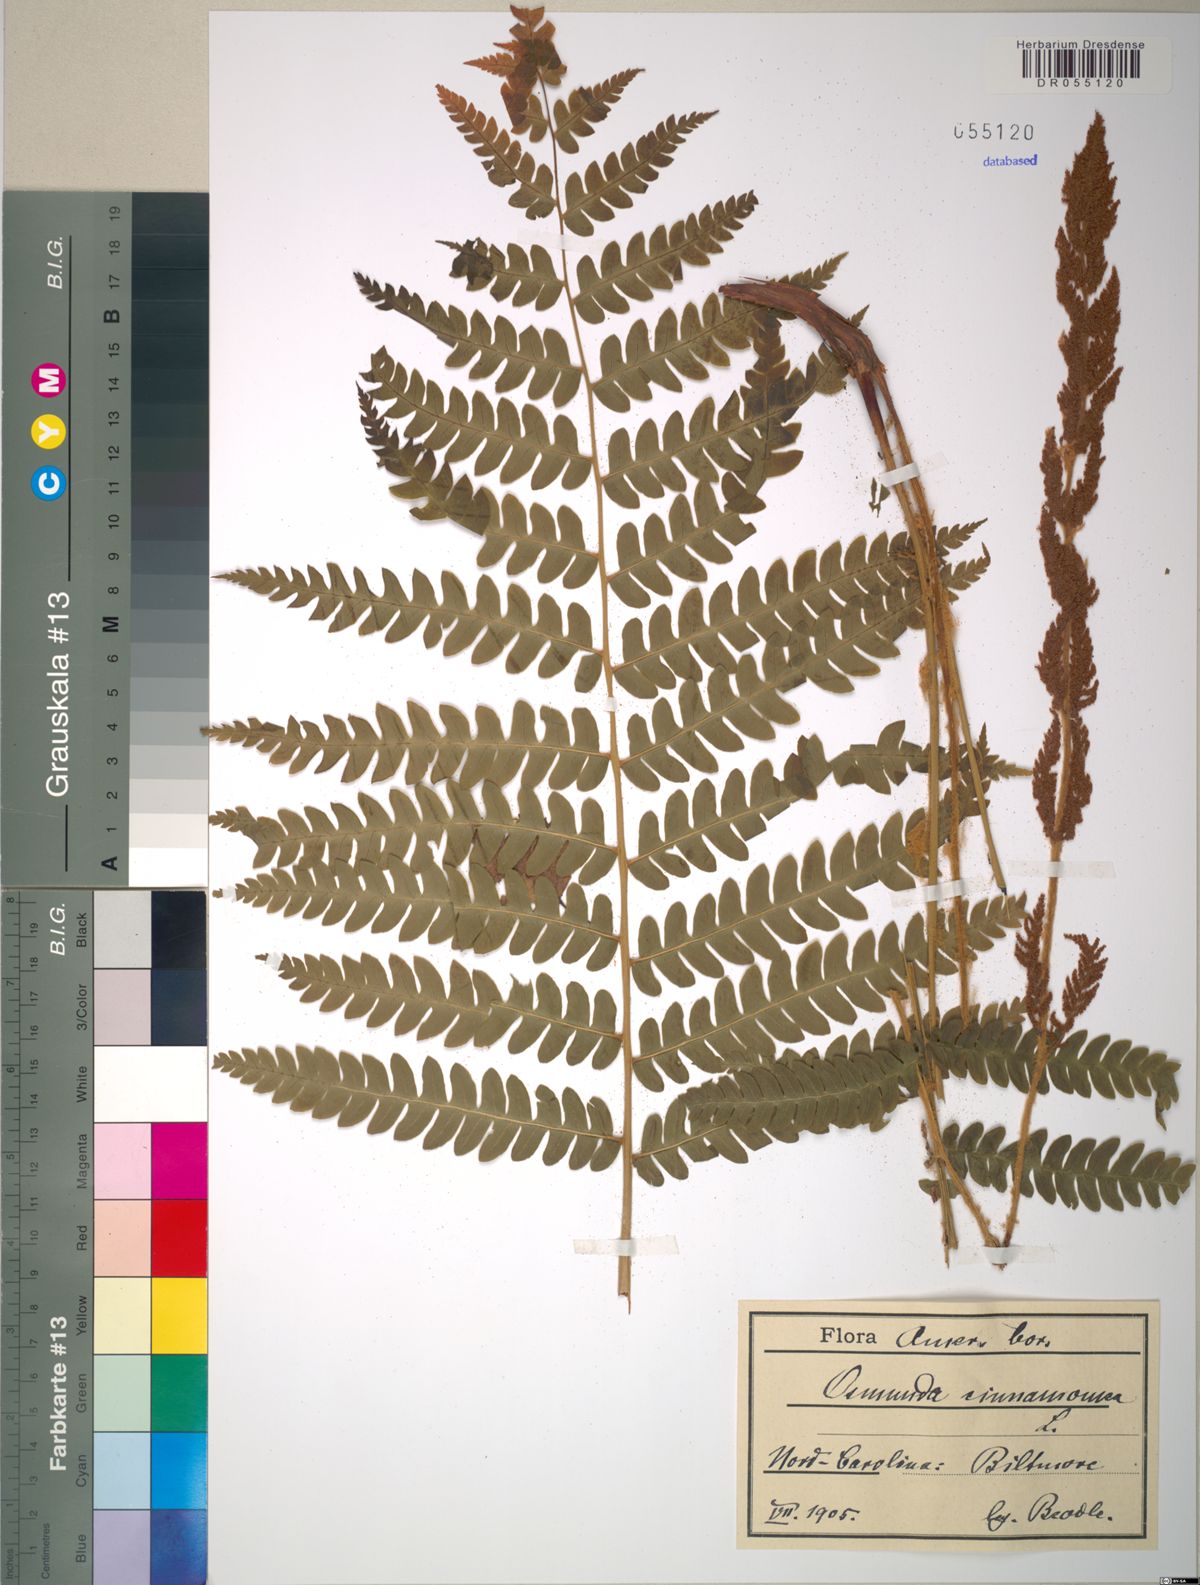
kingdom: Plantae
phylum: Tracheophyta
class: Polypodiopsida
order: Osmundales
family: Osmundaceae
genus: Osmundastrum
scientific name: Osmundastrum cinnamomeum
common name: Cinnamon fern
